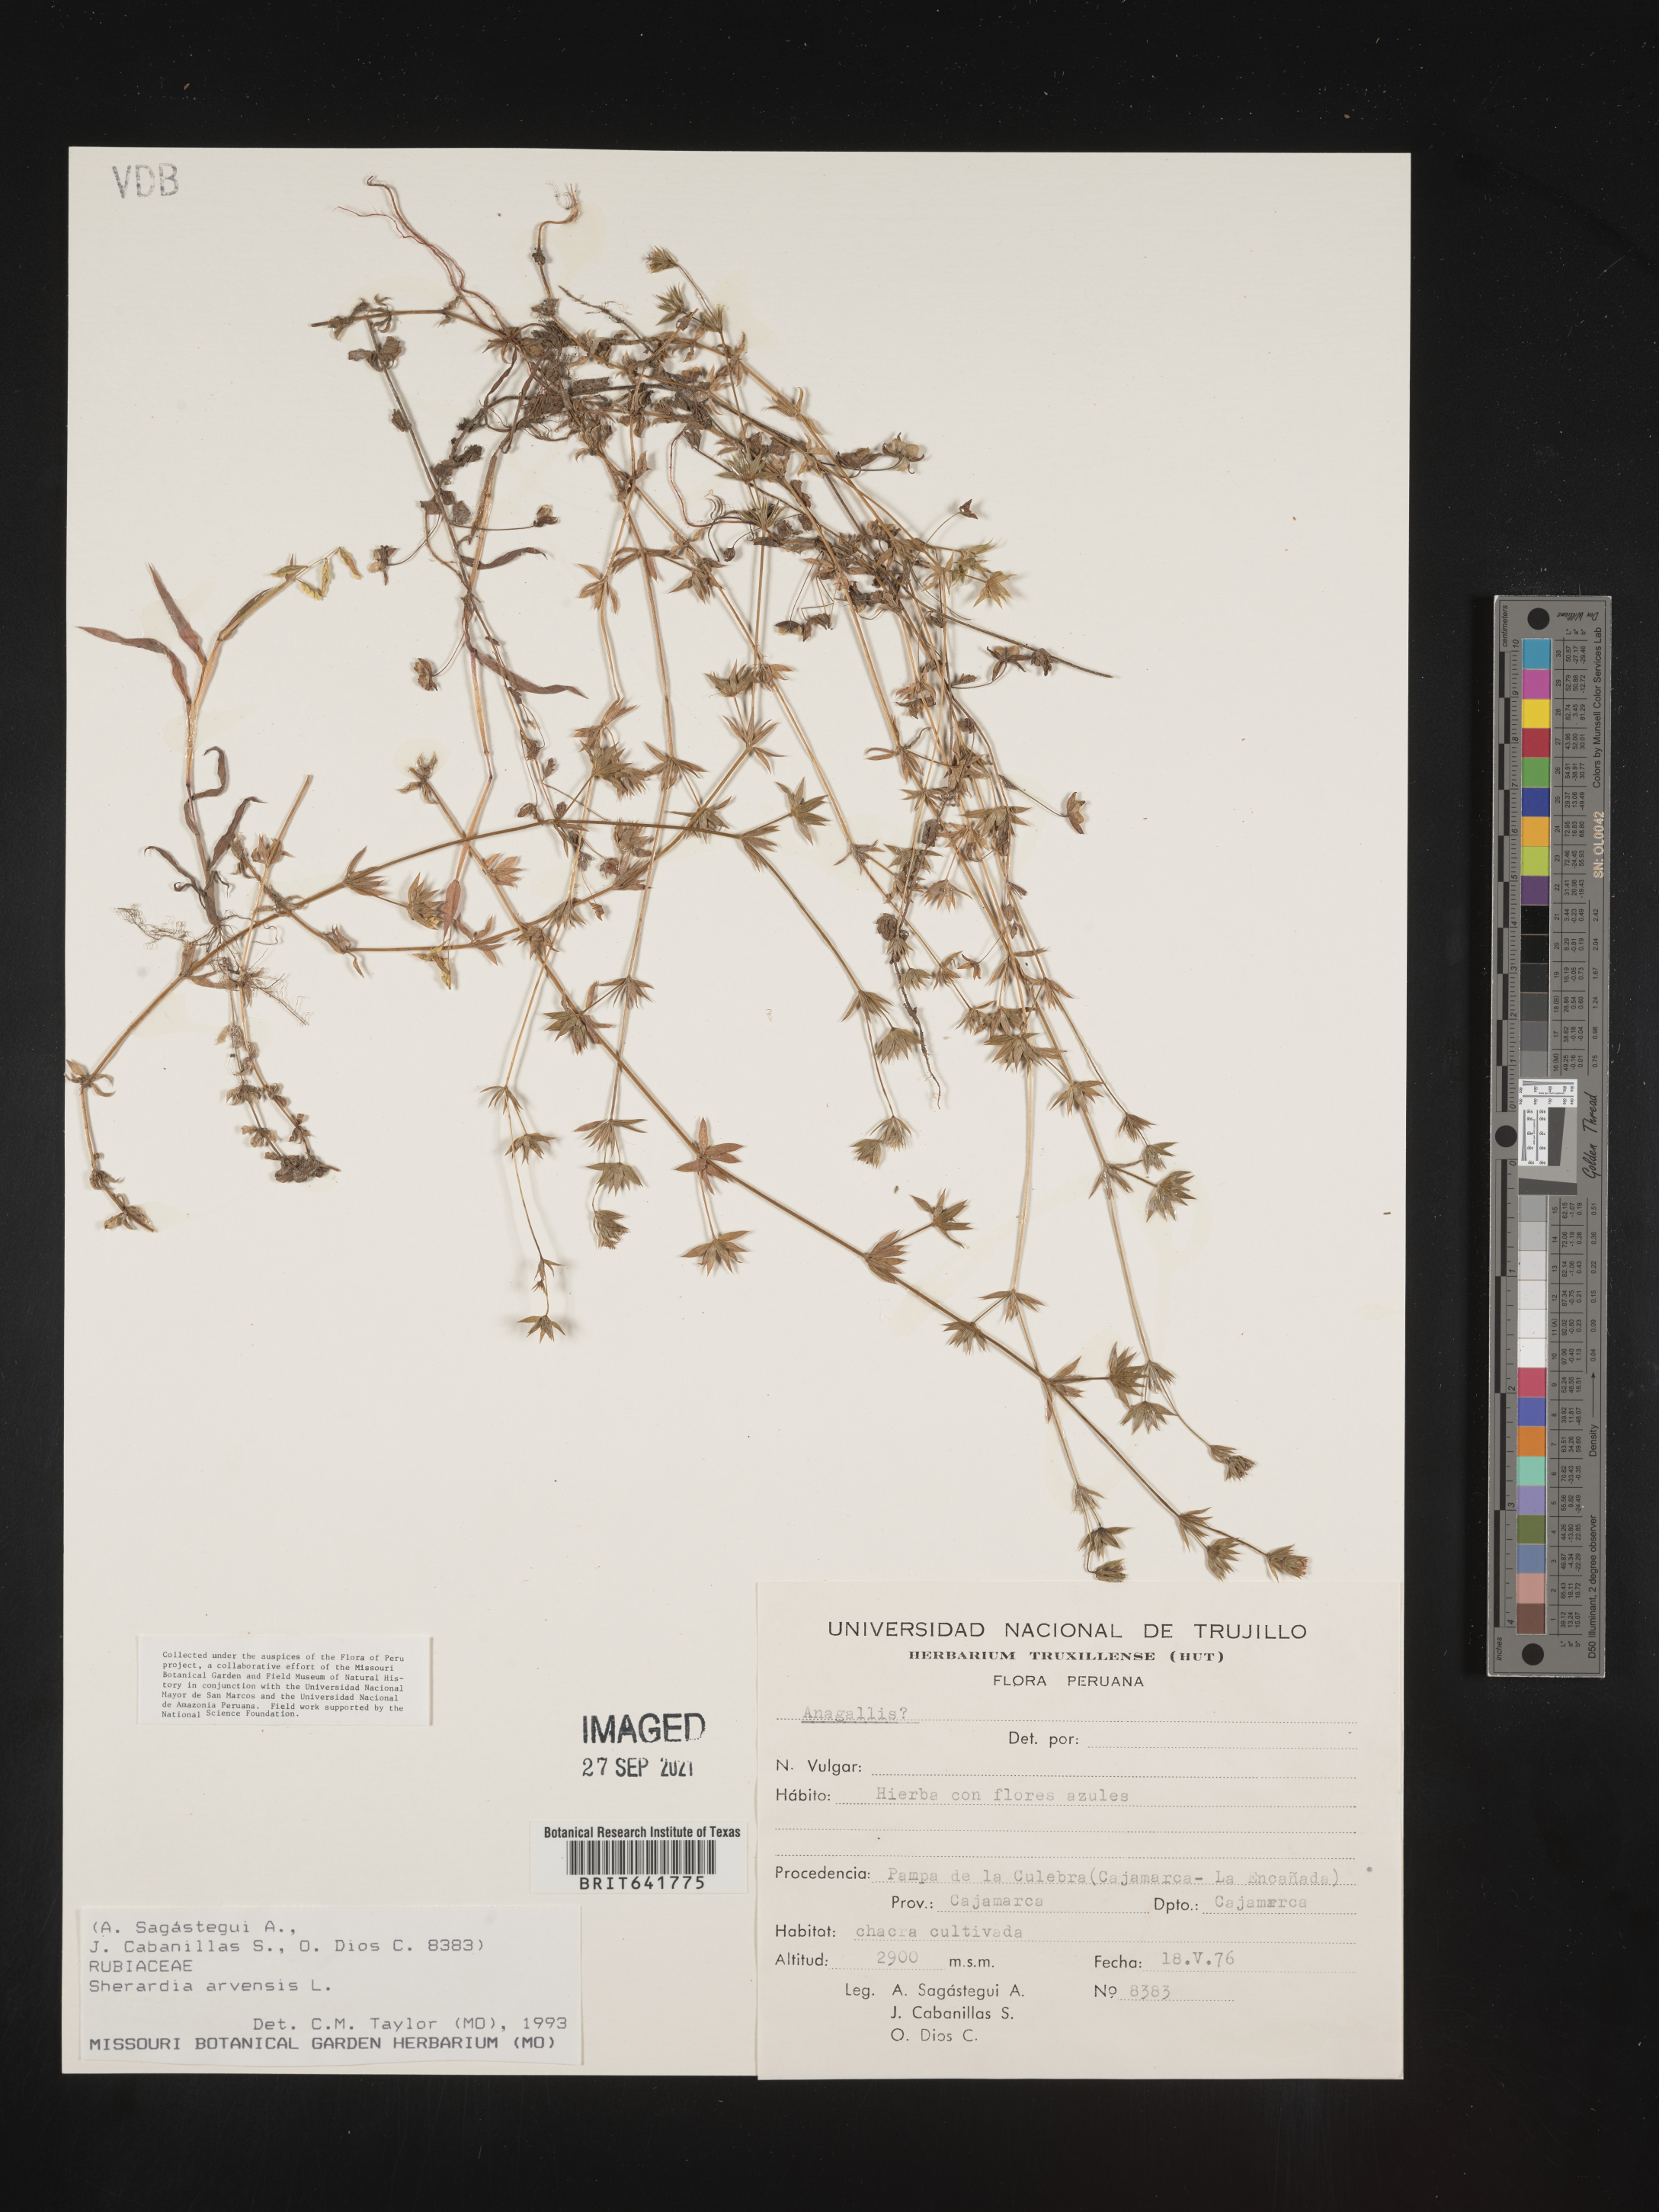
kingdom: Plantae
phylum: Tracheophyta
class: Magnoliopsida
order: Gentianales
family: Rubiaceae
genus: Sherardia
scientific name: Sherardia
